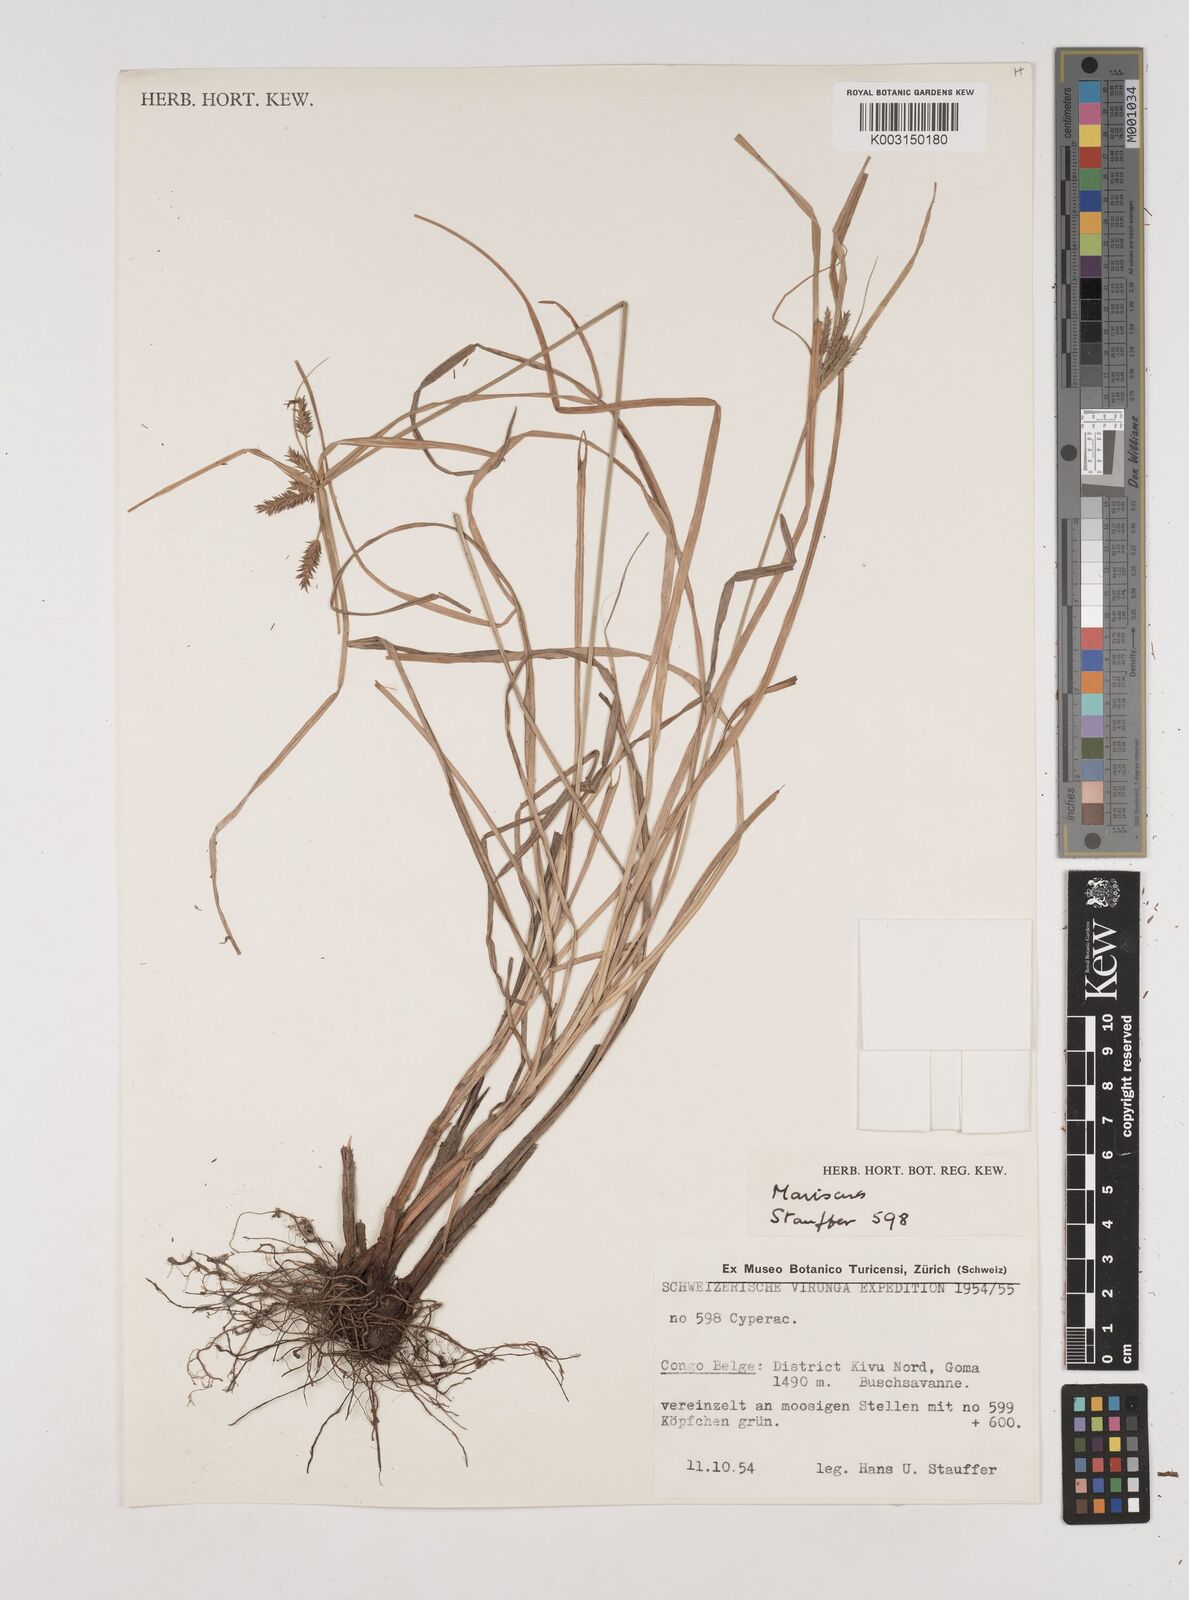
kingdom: Plantae
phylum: Tracheophyta
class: Liliopsida
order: Poales
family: Cyperaceae
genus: Cyperus
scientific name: Cyperus
